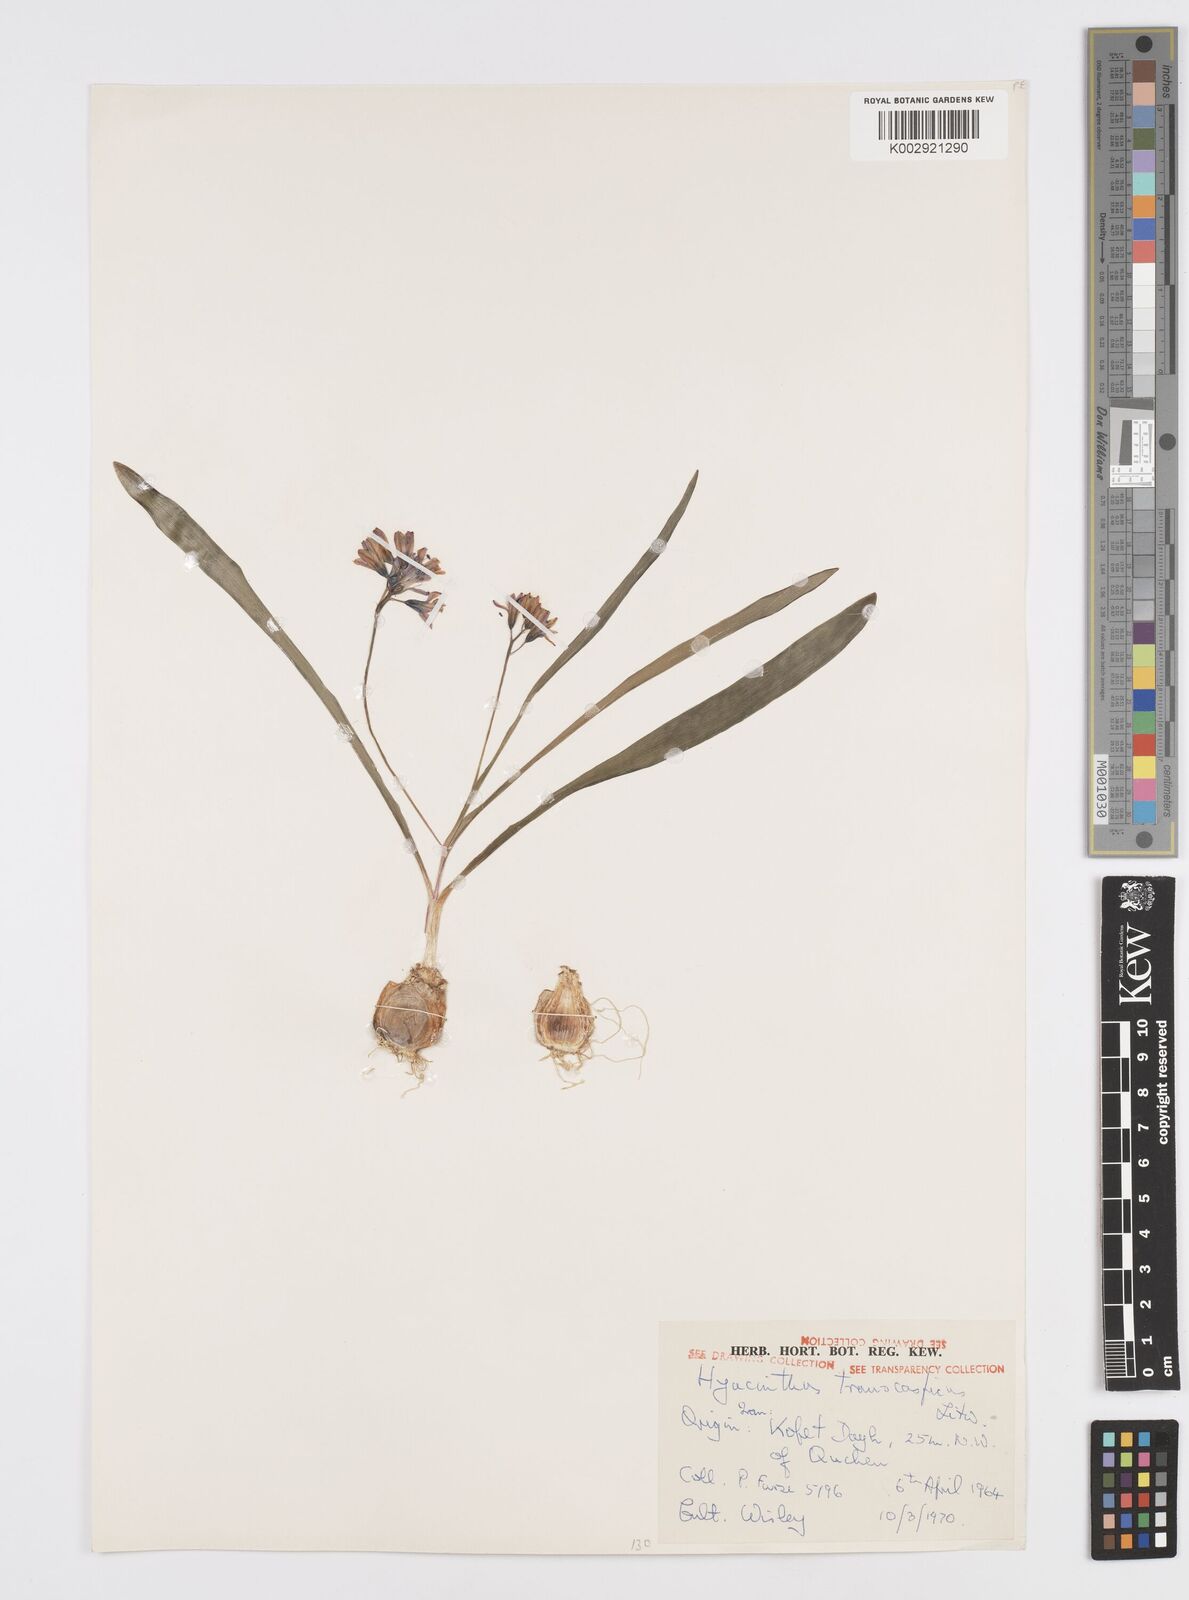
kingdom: Plantae
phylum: Tracheophyta
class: Liliopsida
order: Asparagales
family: Asparagaceae
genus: Hyacinthus
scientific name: Hyacinthus transcaspicus
